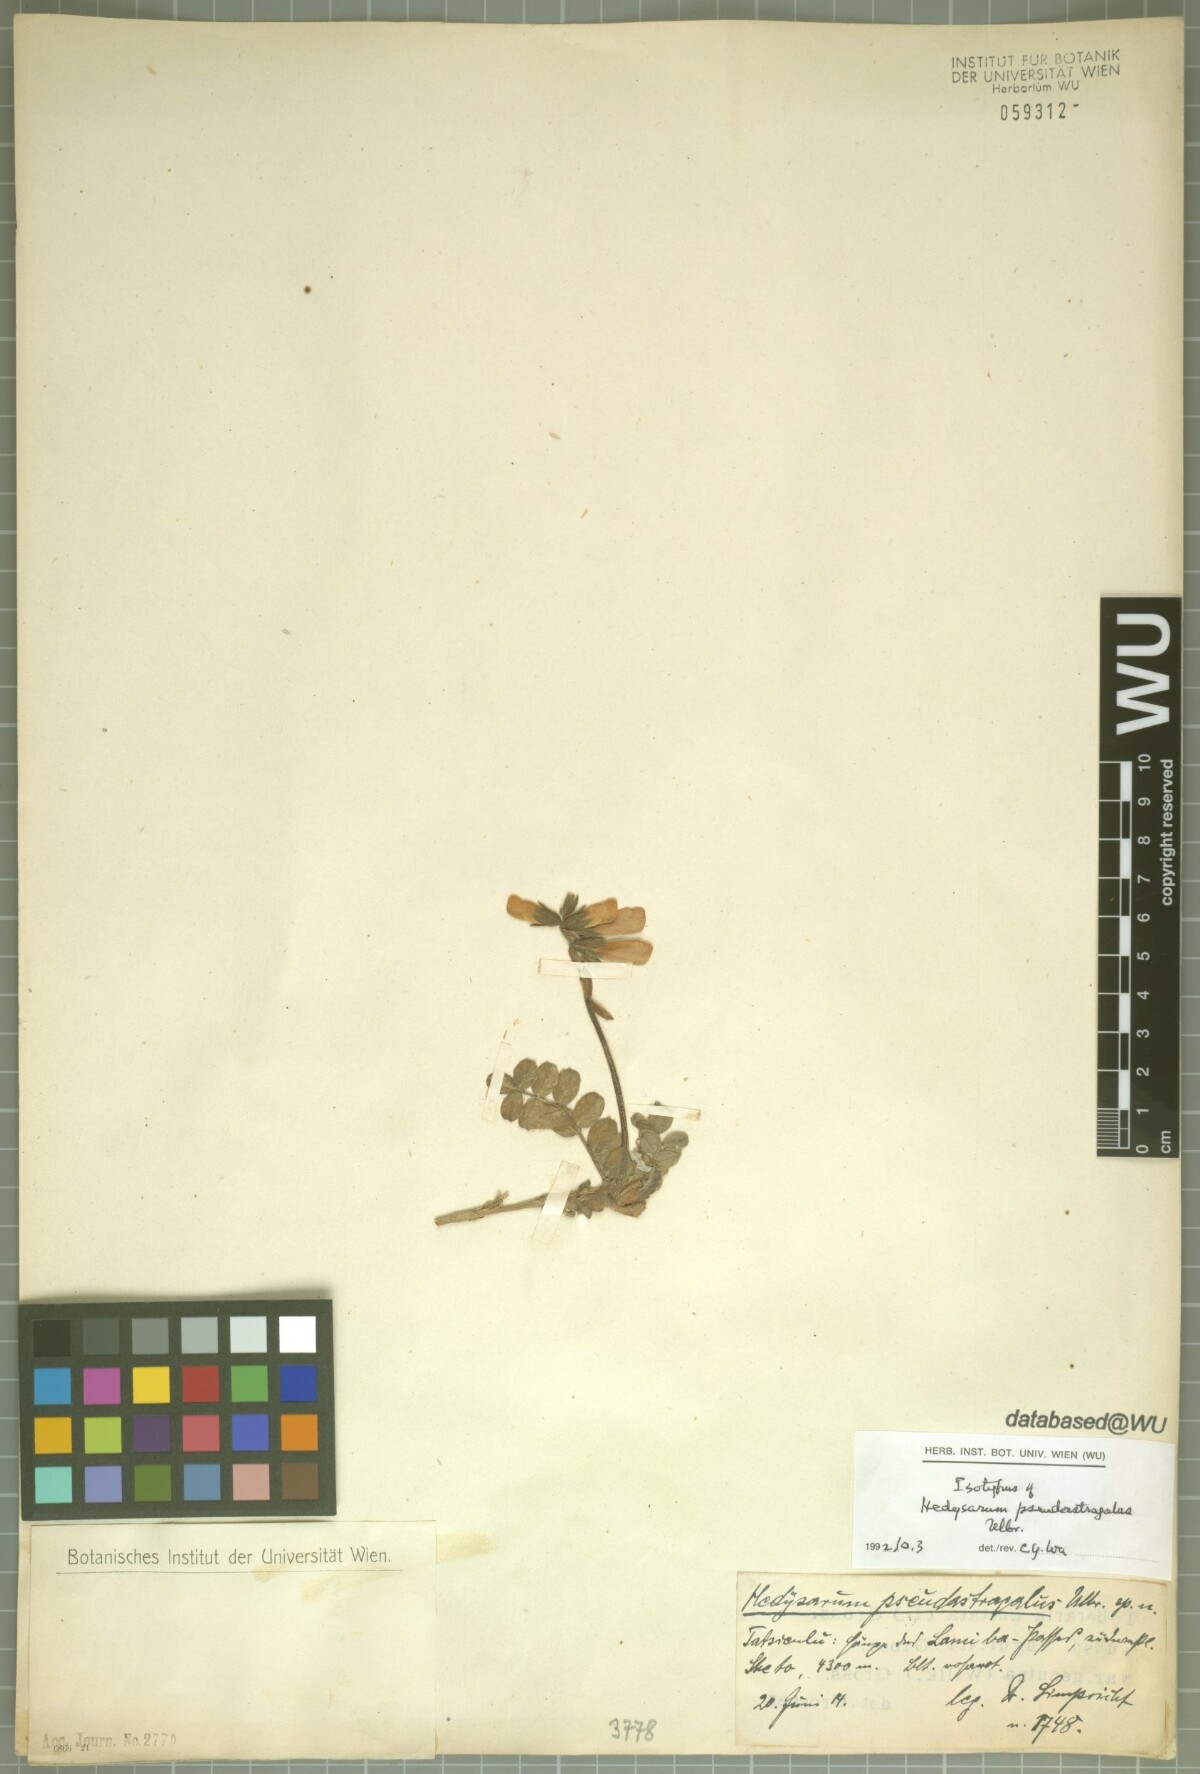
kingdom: Plantae
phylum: Tracheophyta
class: Magnoliopsida
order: Fabales
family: Fabaceae
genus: Hedysarum
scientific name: Hedysarum pseudastragalus
